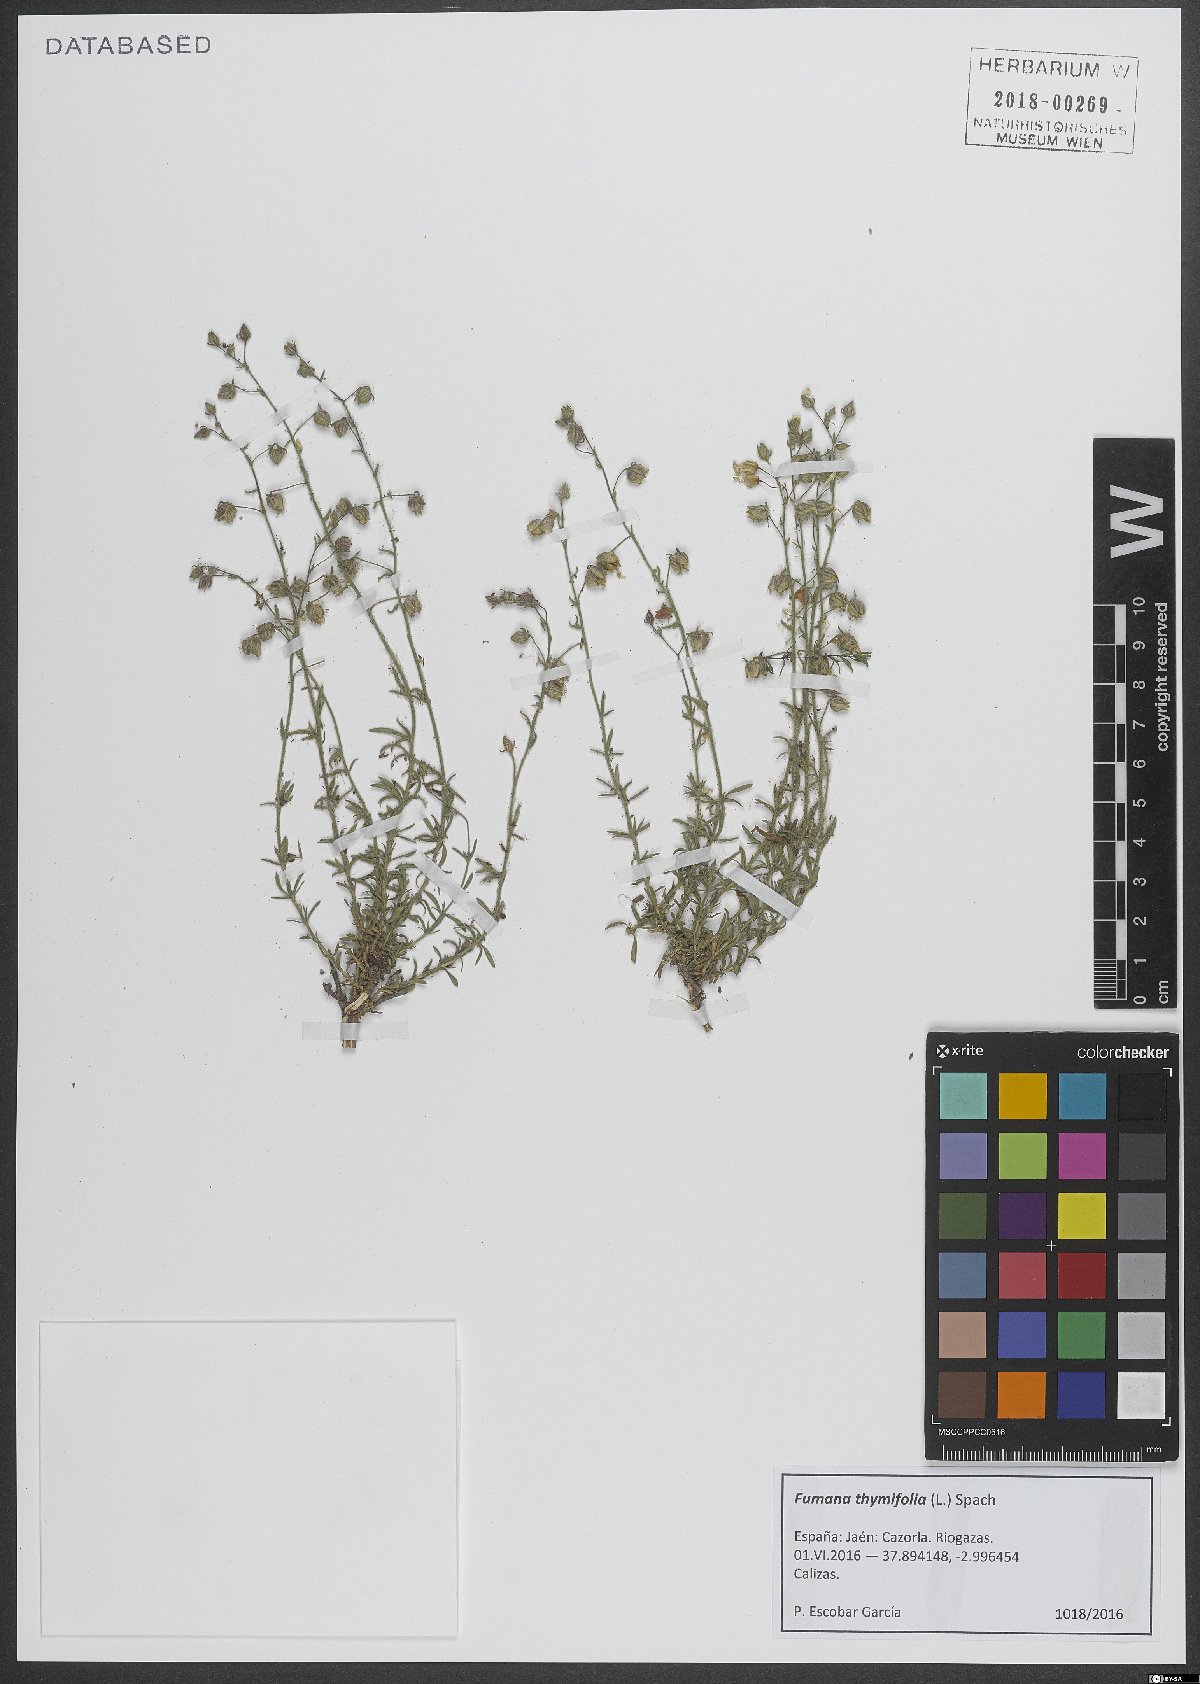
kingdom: Plantae
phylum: Tracheophyta
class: Magnoliopsida
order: Malvales
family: Cistaceae
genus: Fumana
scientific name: Fumana thymifolia
